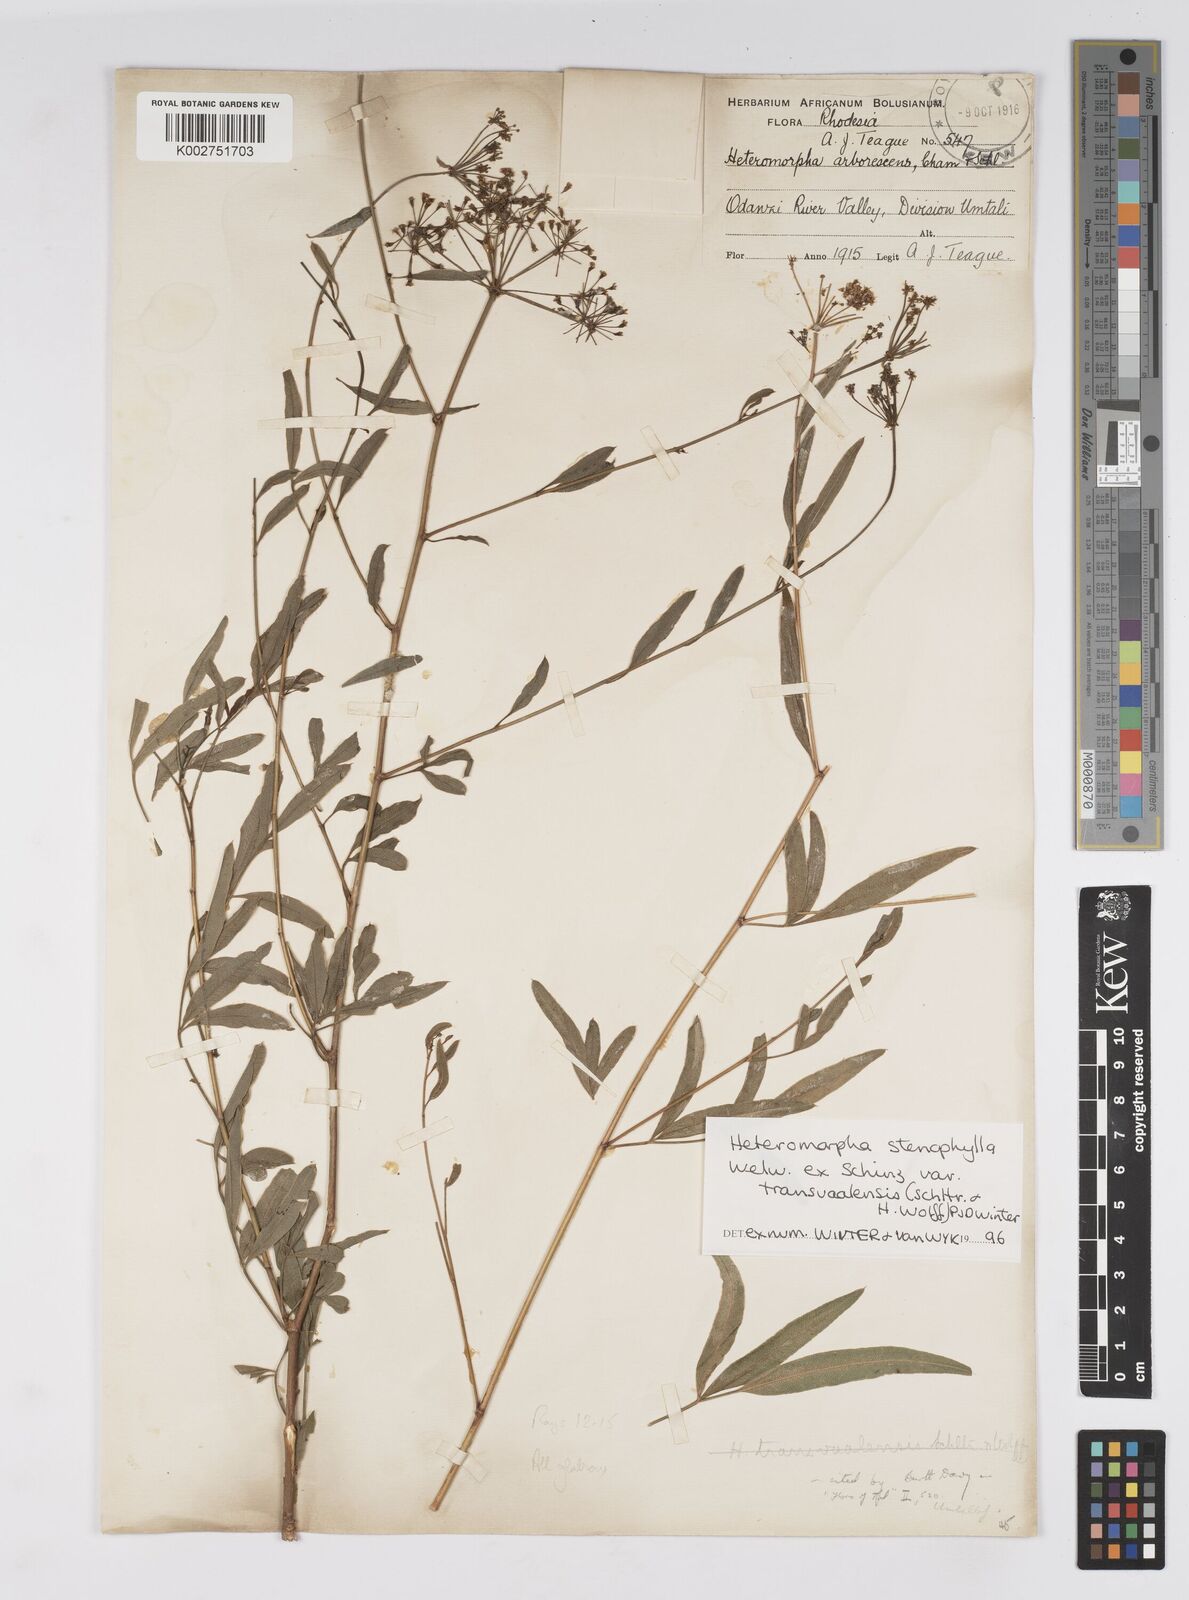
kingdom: Plantae
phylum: Tracheophyta
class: Magnoliopsida
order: Apiales
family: Apiaceae
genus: Heteromorpha
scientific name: Heteromorpha stenophylla
